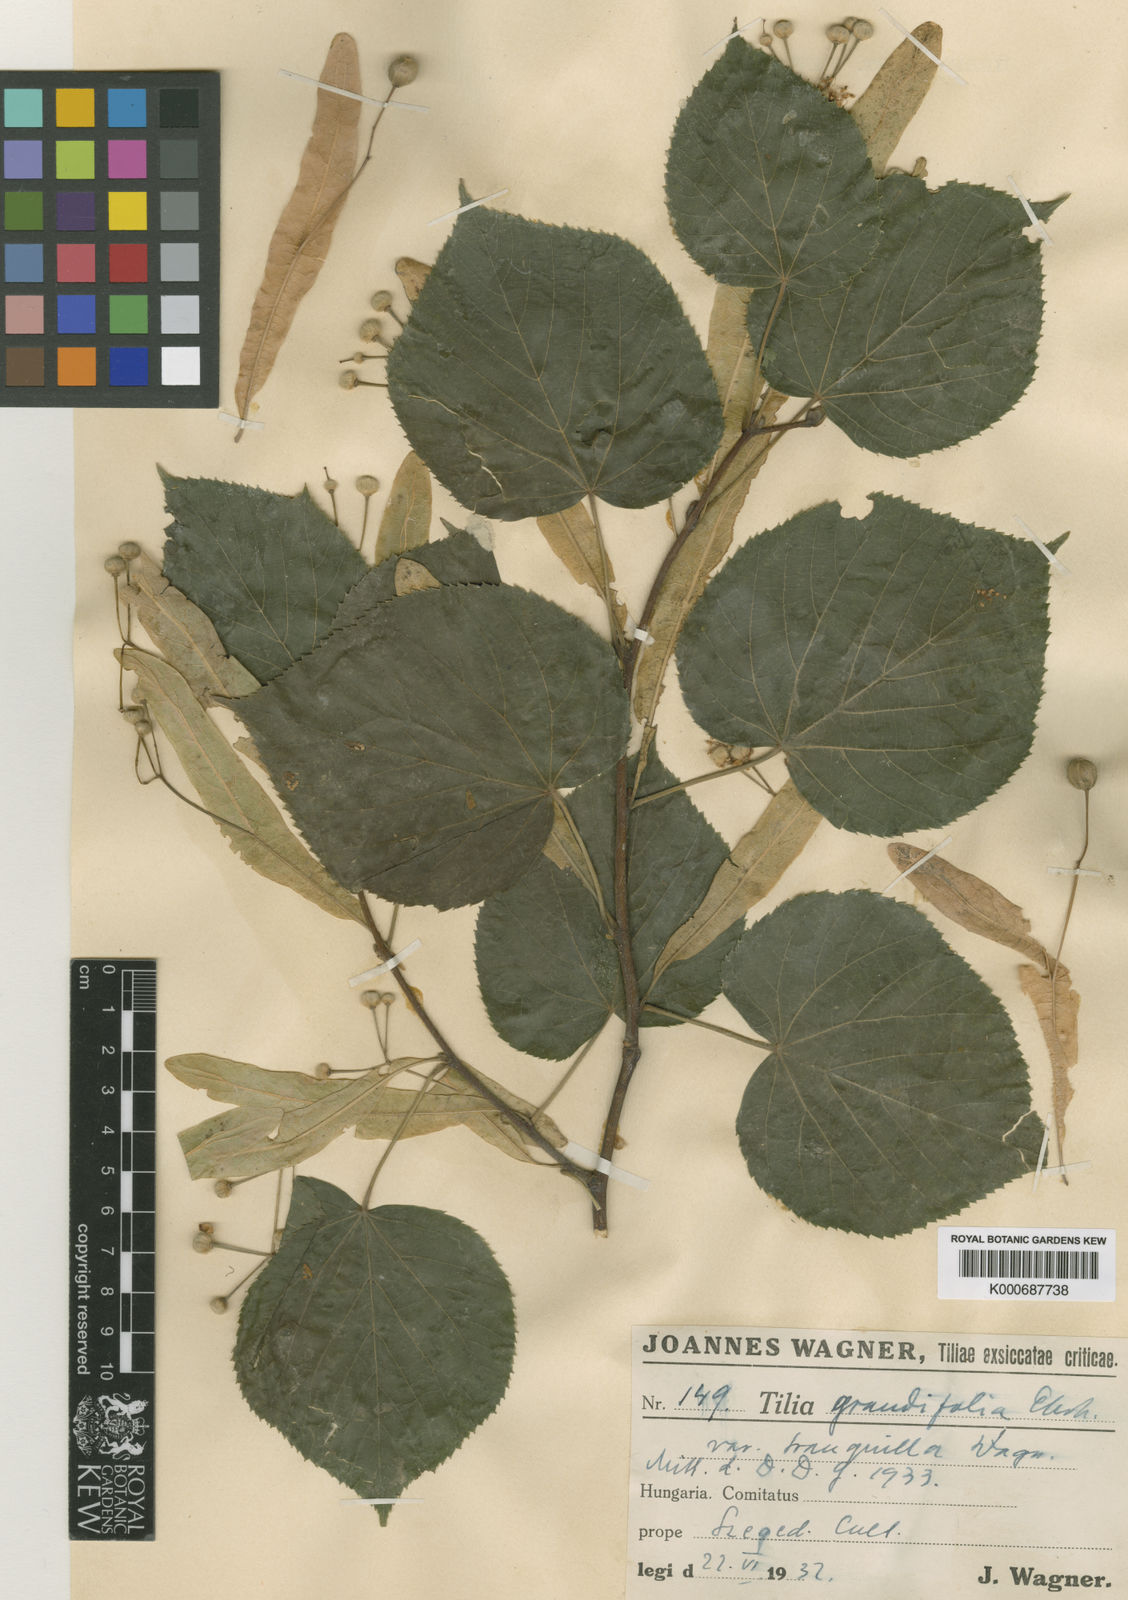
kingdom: Plantae
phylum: Tracheophyta
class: Magnoliopsida
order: Malvales
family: Malvaceae
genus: Tilia
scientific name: Tilia platyphyllos
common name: Large-leaved lime
